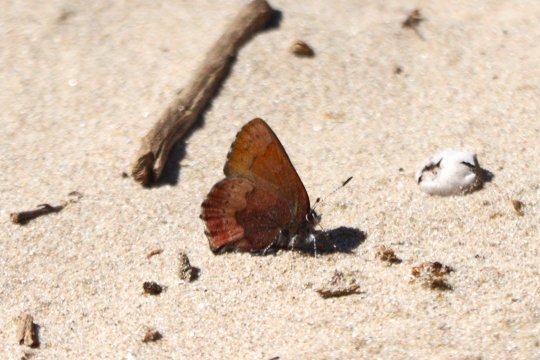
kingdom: Animalia
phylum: Arthropoda
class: Insecta
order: Lepidoptera
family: Lycaenidae
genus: Incisalia
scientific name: Incisalia irioides
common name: Brown Elfin
